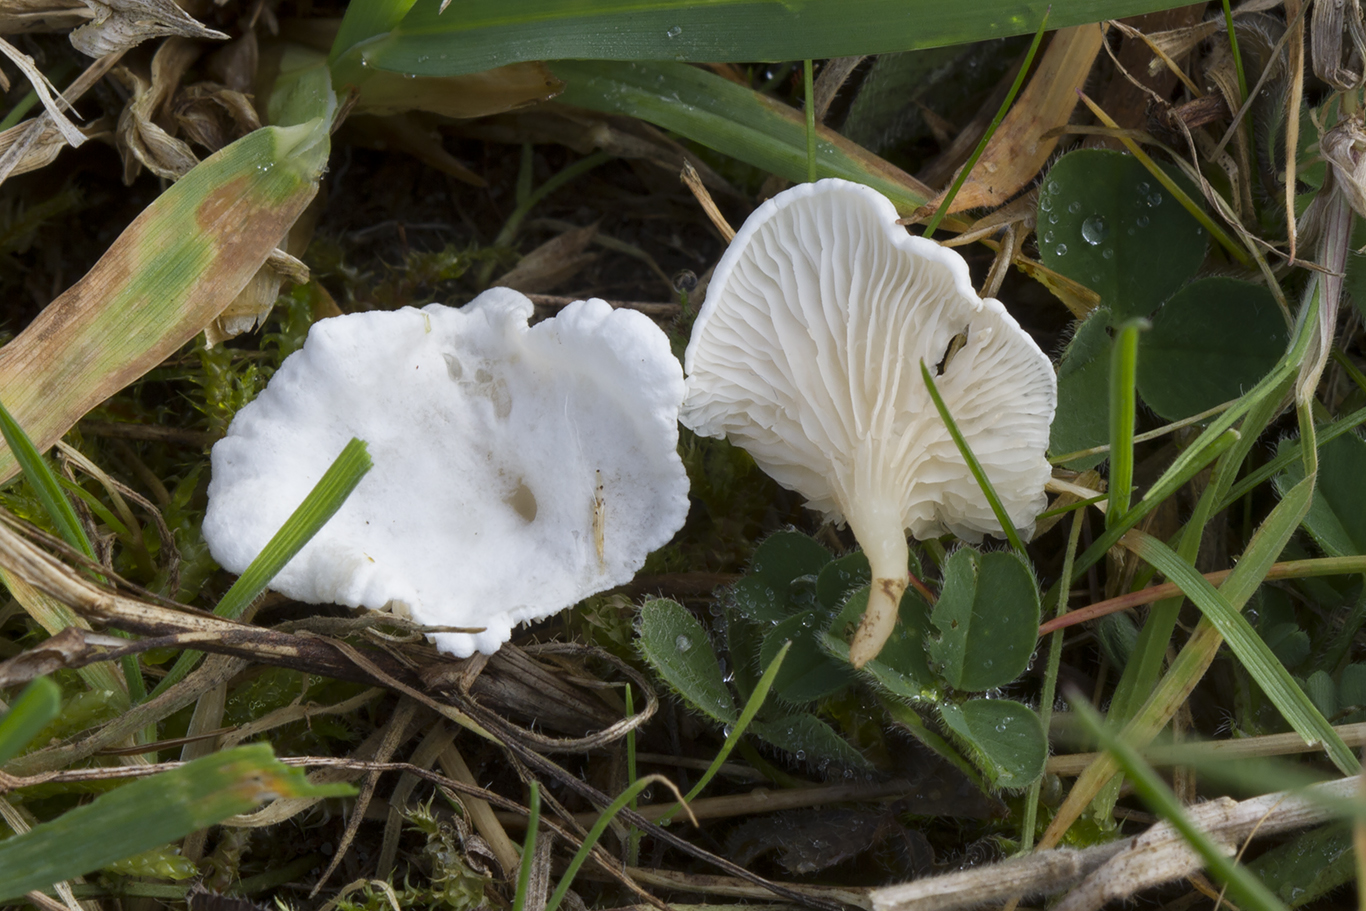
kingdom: Fungi
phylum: Basidiomycota
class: Agaricomycetes
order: Agaricales
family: Entolomataceae
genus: Clitopilus
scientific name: Clitopilus scyphoides
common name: spinkel melhat
